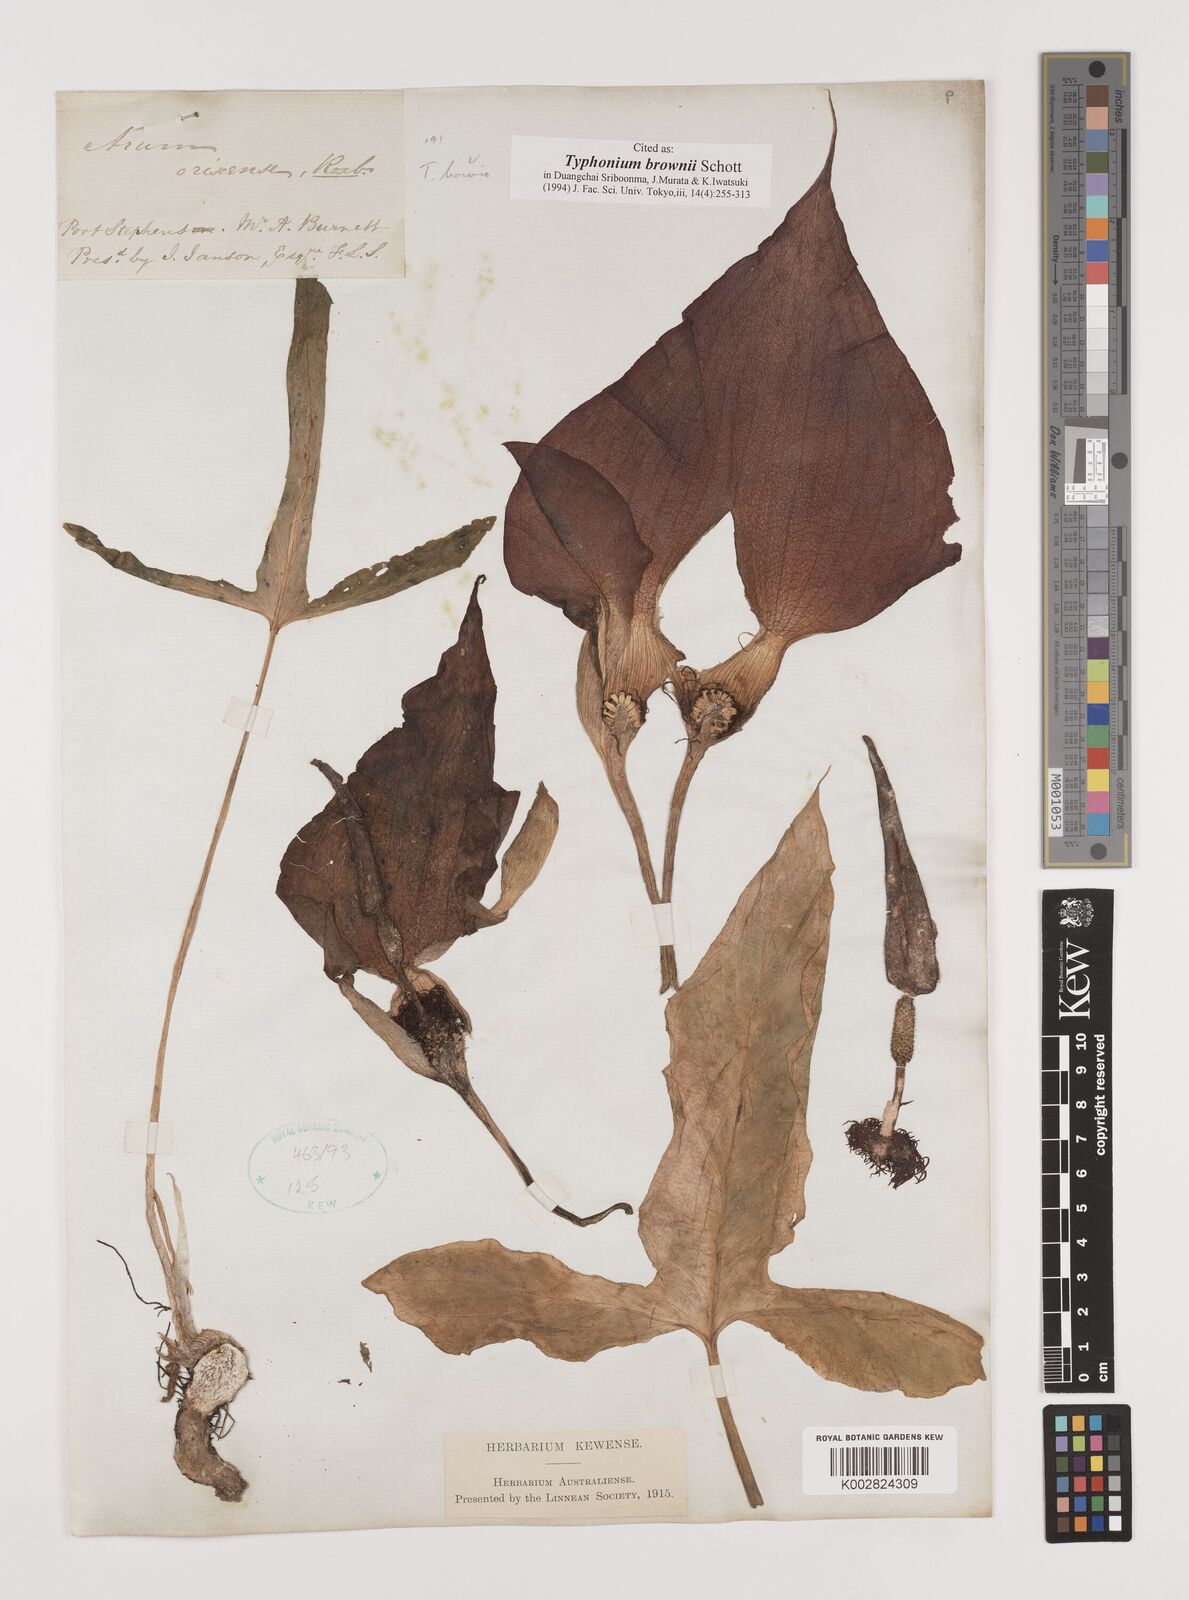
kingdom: Plantae
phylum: Tracheophyta
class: Liliopsida
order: Alismatales
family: Araceae
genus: Typhonium
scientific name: Typhonium brownii
